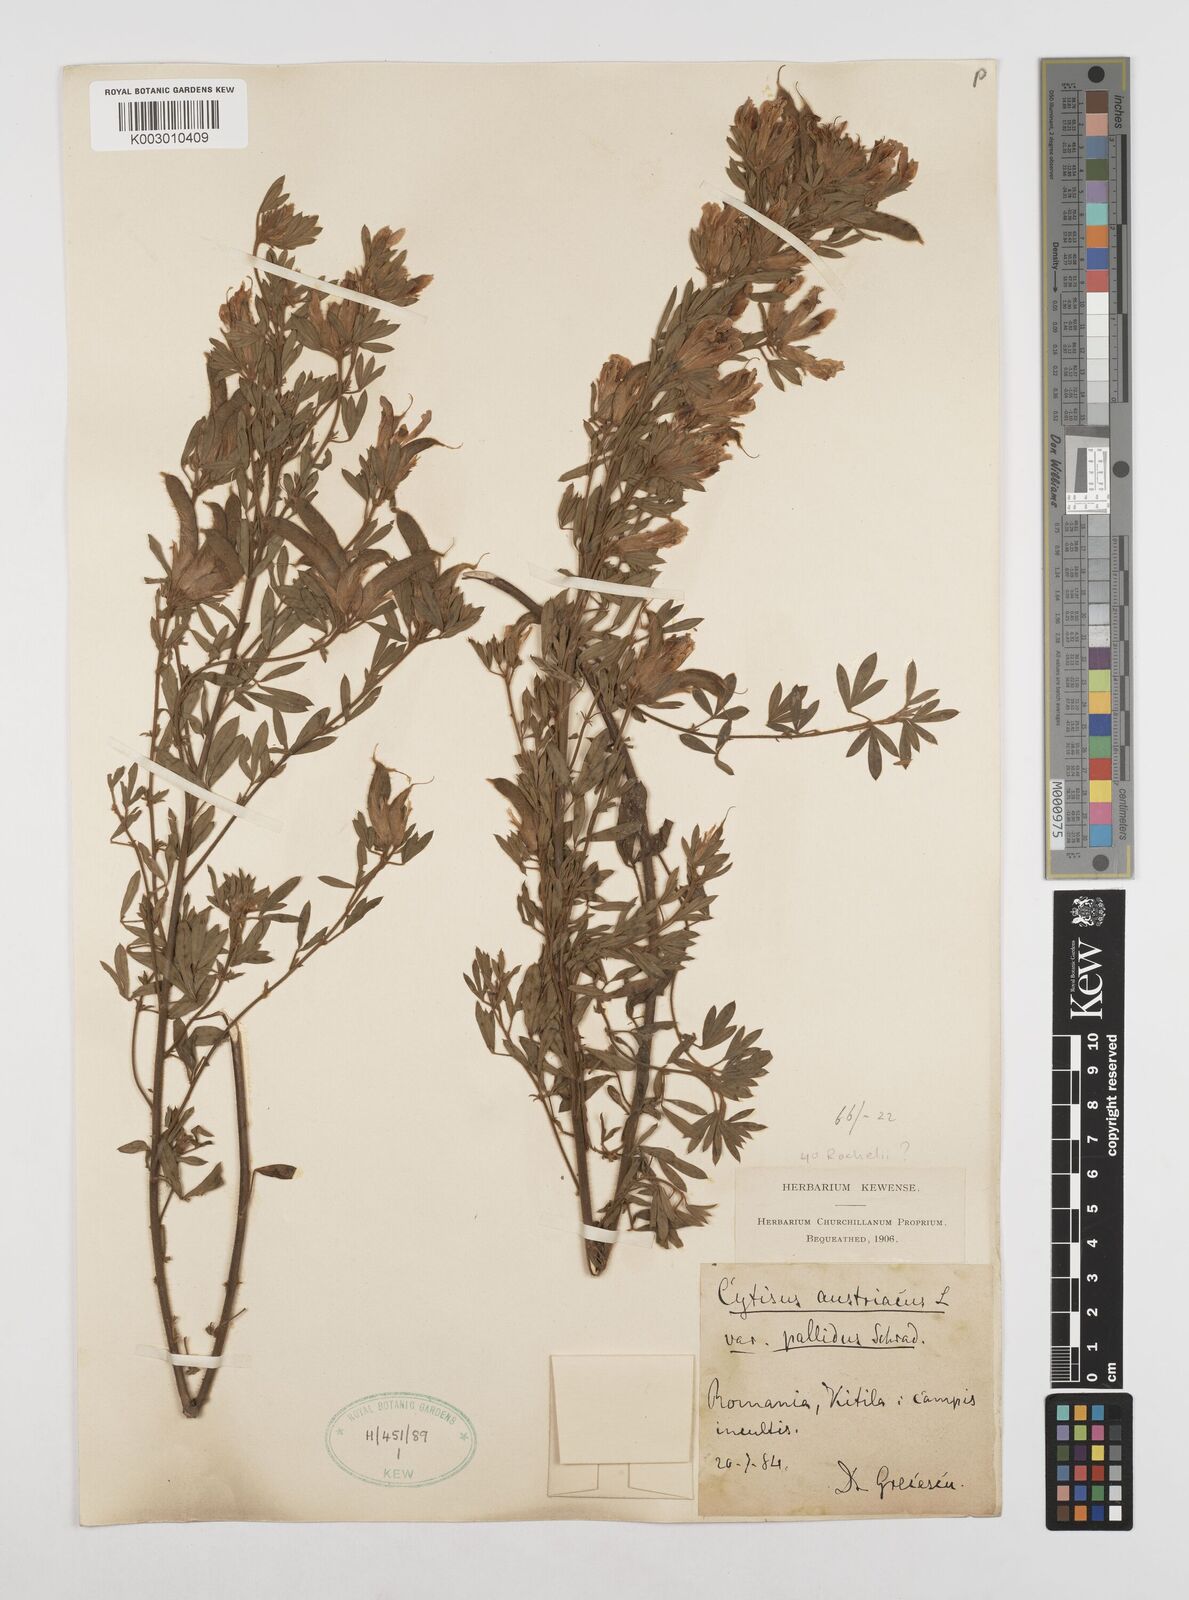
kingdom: Plantae
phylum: Tracheophyta
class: Magnoliopsida
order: Fabales
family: Fabaceae
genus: Chamaecytisus
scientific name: Chamaecytisus rochelii
